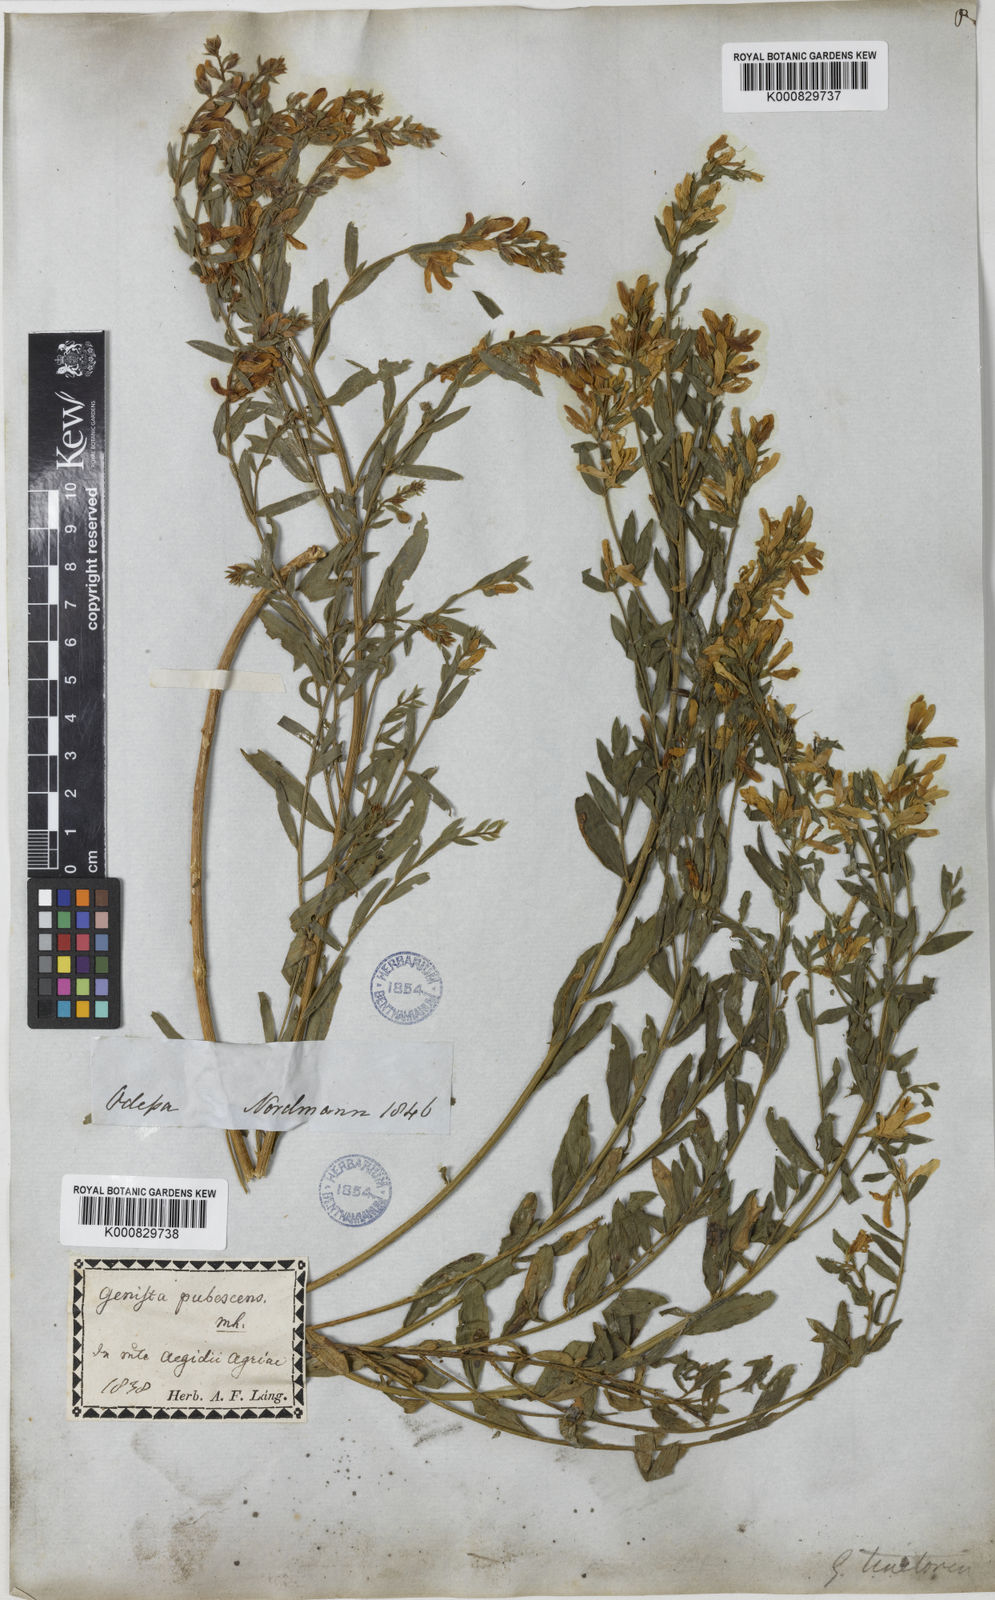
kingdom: Plantae
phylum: Tracheophyta
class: Magnoliopsida
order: Fabales
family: Fabaceae
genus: Genista
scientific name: Genista tinctoria
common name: Dyer's greenweed
